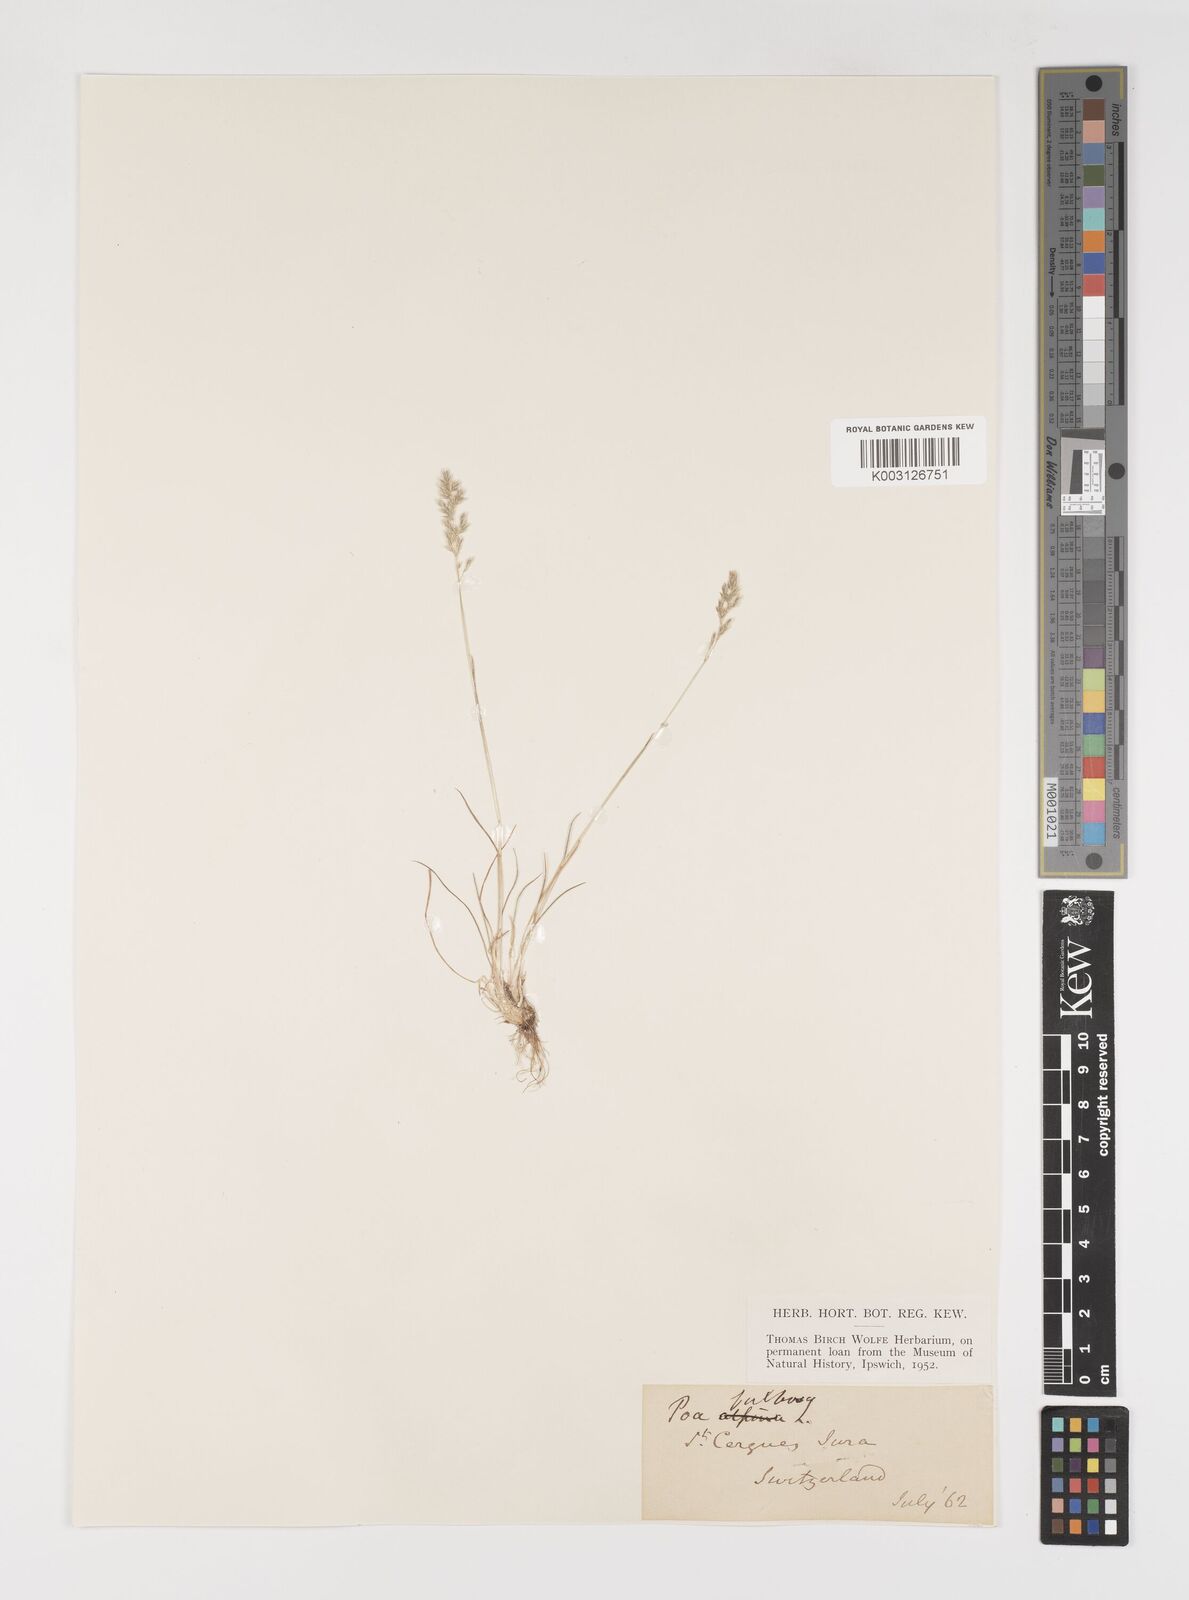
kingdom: Plantae
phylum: Tracheophyta
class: Liliopsida
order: Poales
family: Poaceae
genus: Poa
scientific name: Poa bulbosa
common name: Bulbous bluegrass
